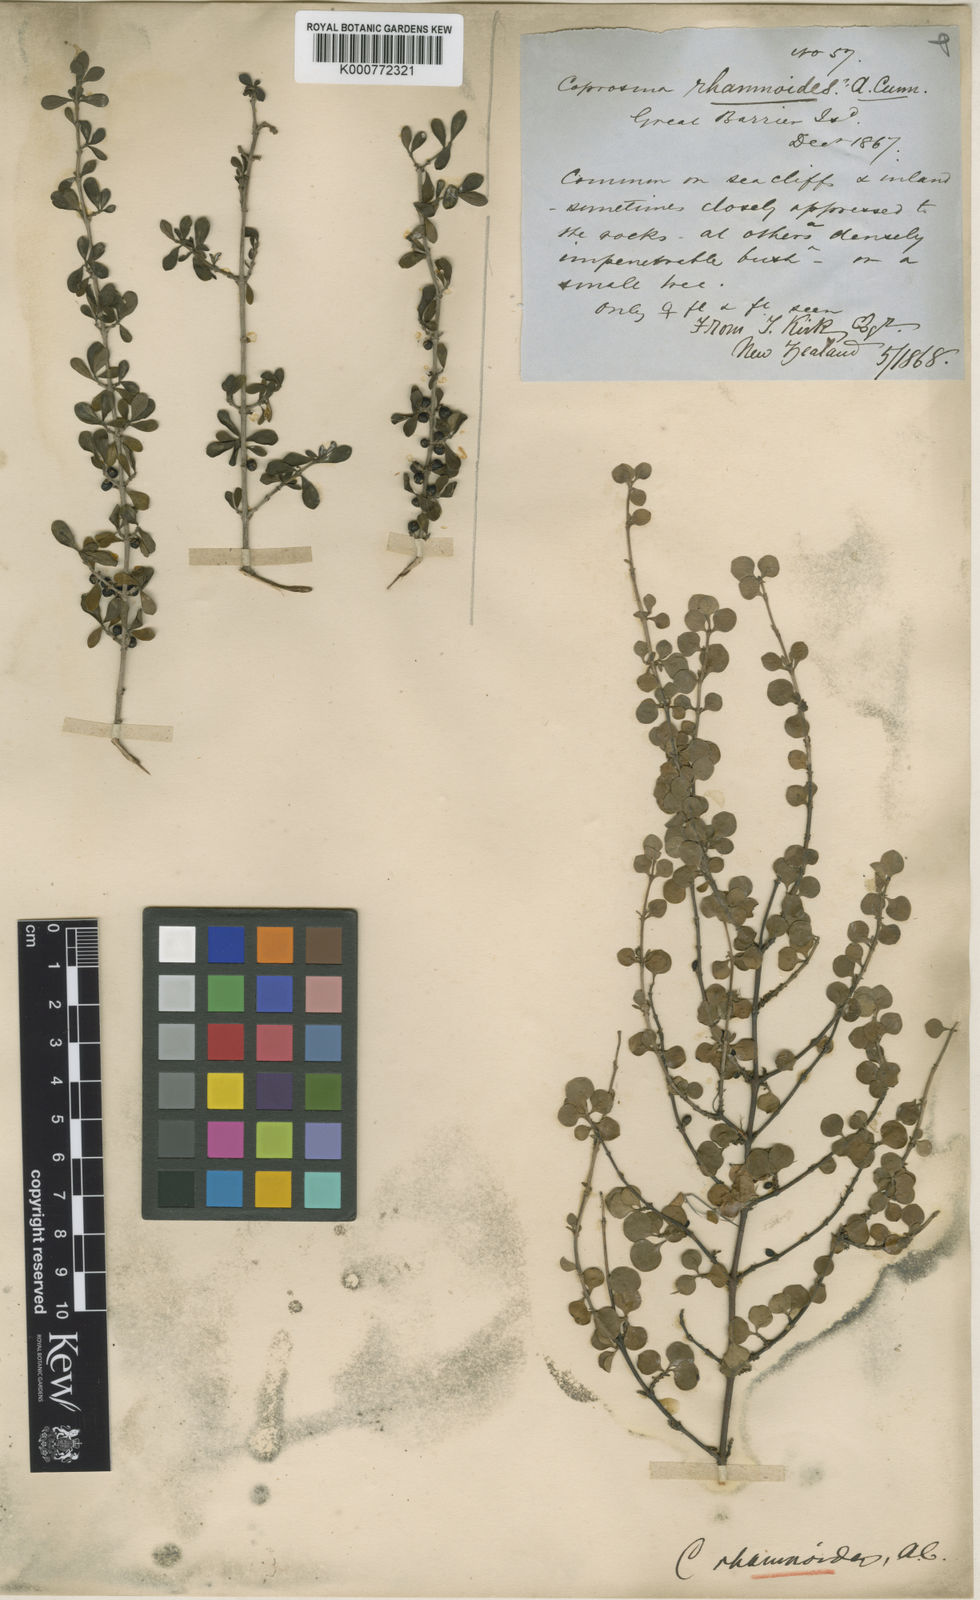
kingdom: Plantae
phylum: Tracheophyta
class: Magnoliopsida
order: Gentianales
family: Rubiaceae
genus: Coprosma
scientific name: Coprosma rhamnoides
